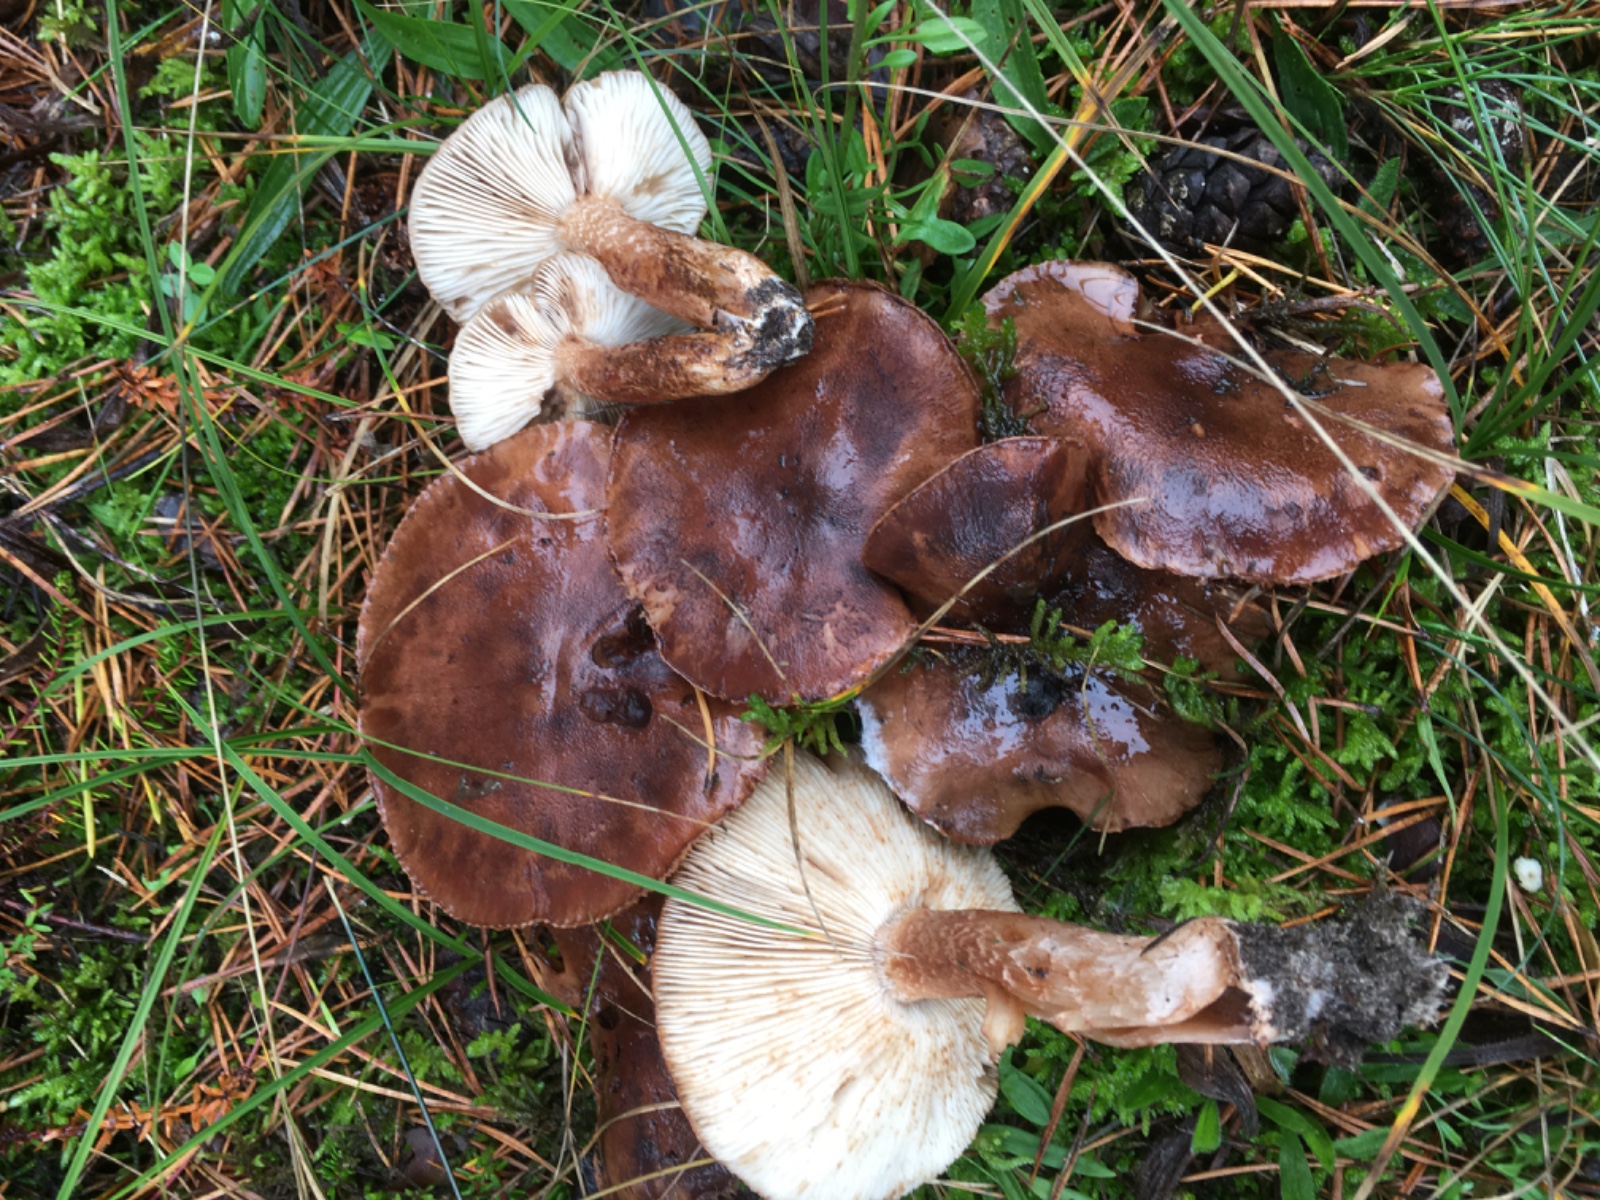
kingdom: Fungi
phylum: Basidiomycota
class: Agaricomycetes
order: Agaricales
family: Tricholomataceae
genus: Tricholoma
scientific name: Tricholoma albobrunneum
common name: kastanie-ridderhat
